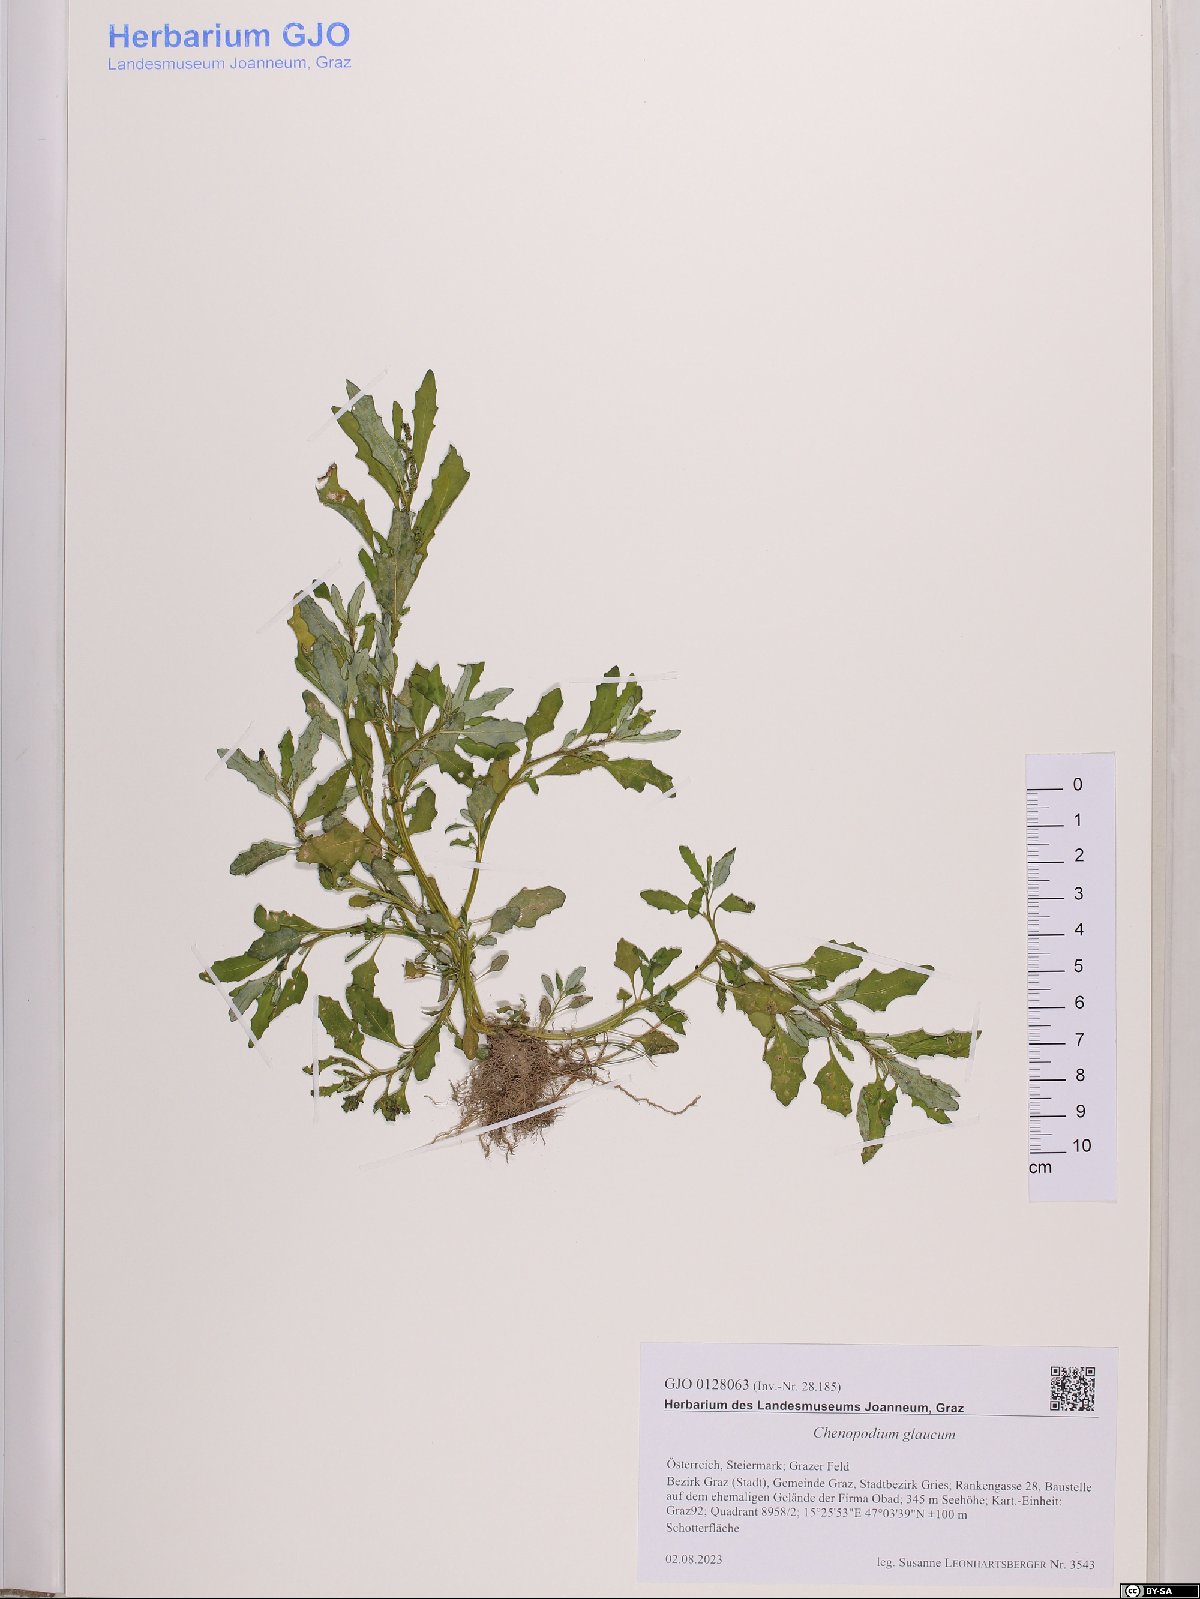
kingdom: Plantae
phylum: Tracheophyta
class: Magnoliopsida
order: Caryophyllales
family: Amaranthaceae
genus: Oxybasis
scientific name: Oxybasis glauca
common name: Glaucous goosefoot
